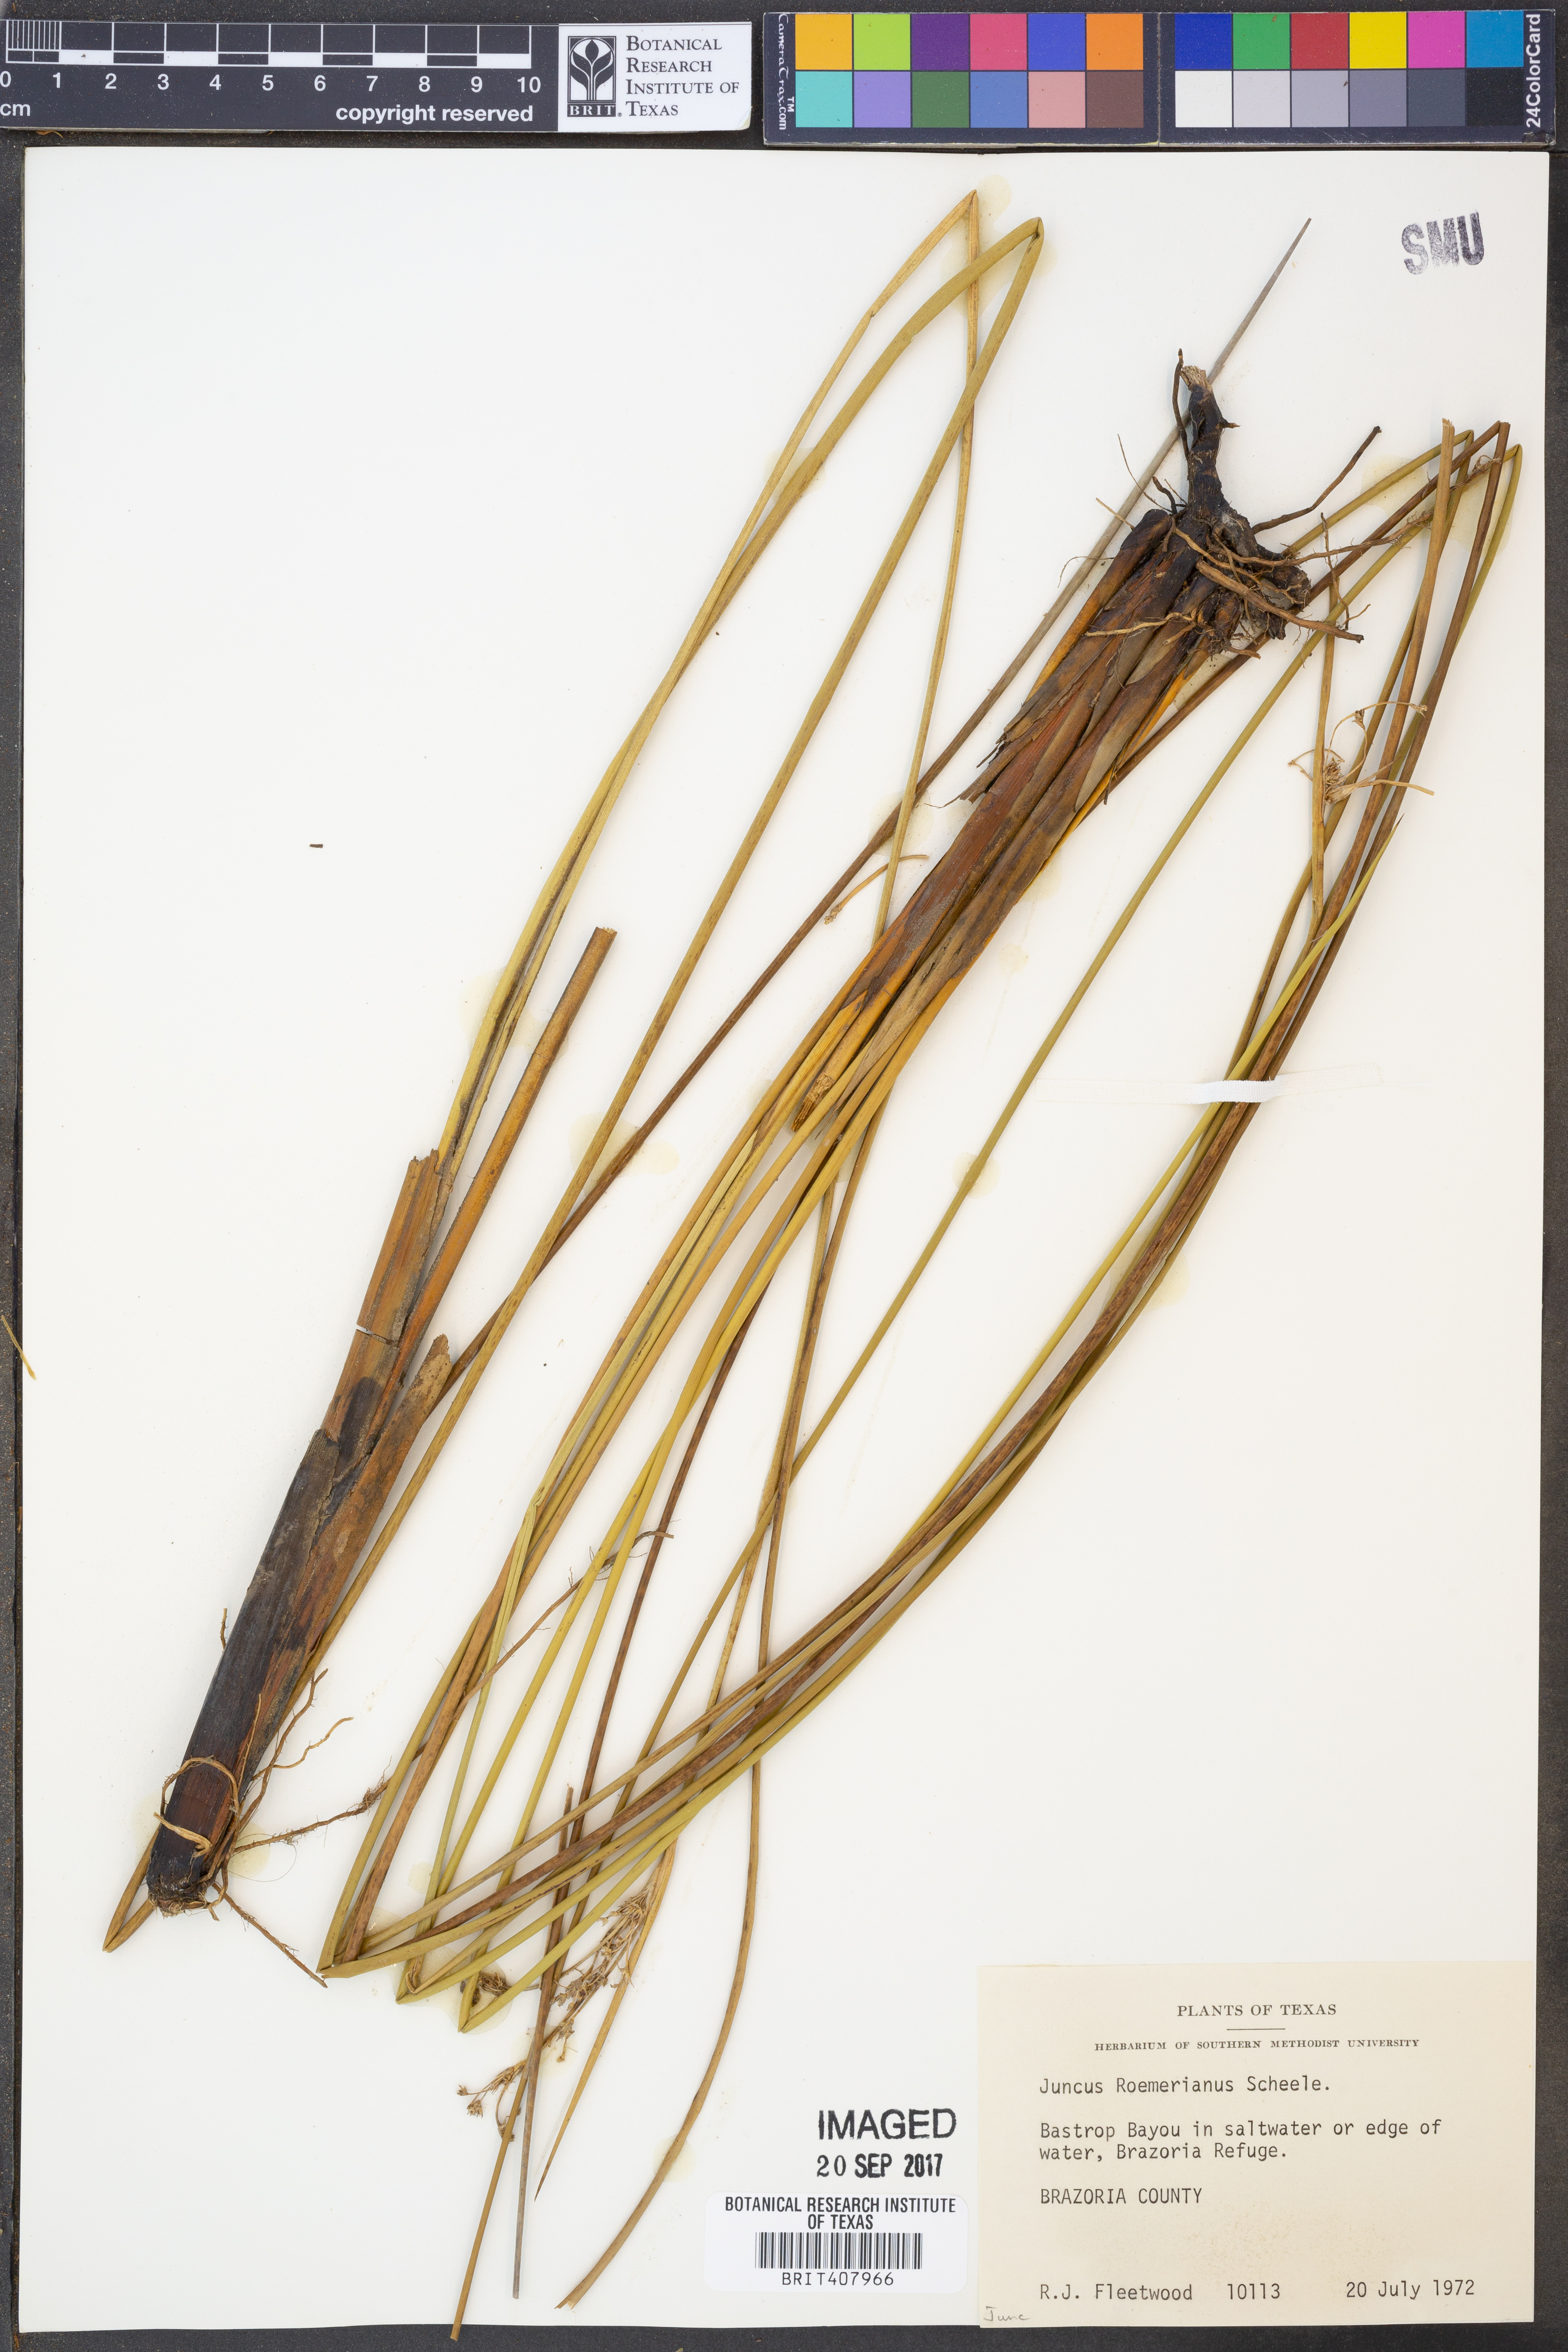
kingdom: Plantae
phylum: Tracheophyta
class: Liliopsida
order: Poales
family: Juncaceae
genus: Juncus
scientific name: Juncus roemerianus
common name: Roemer's rush
